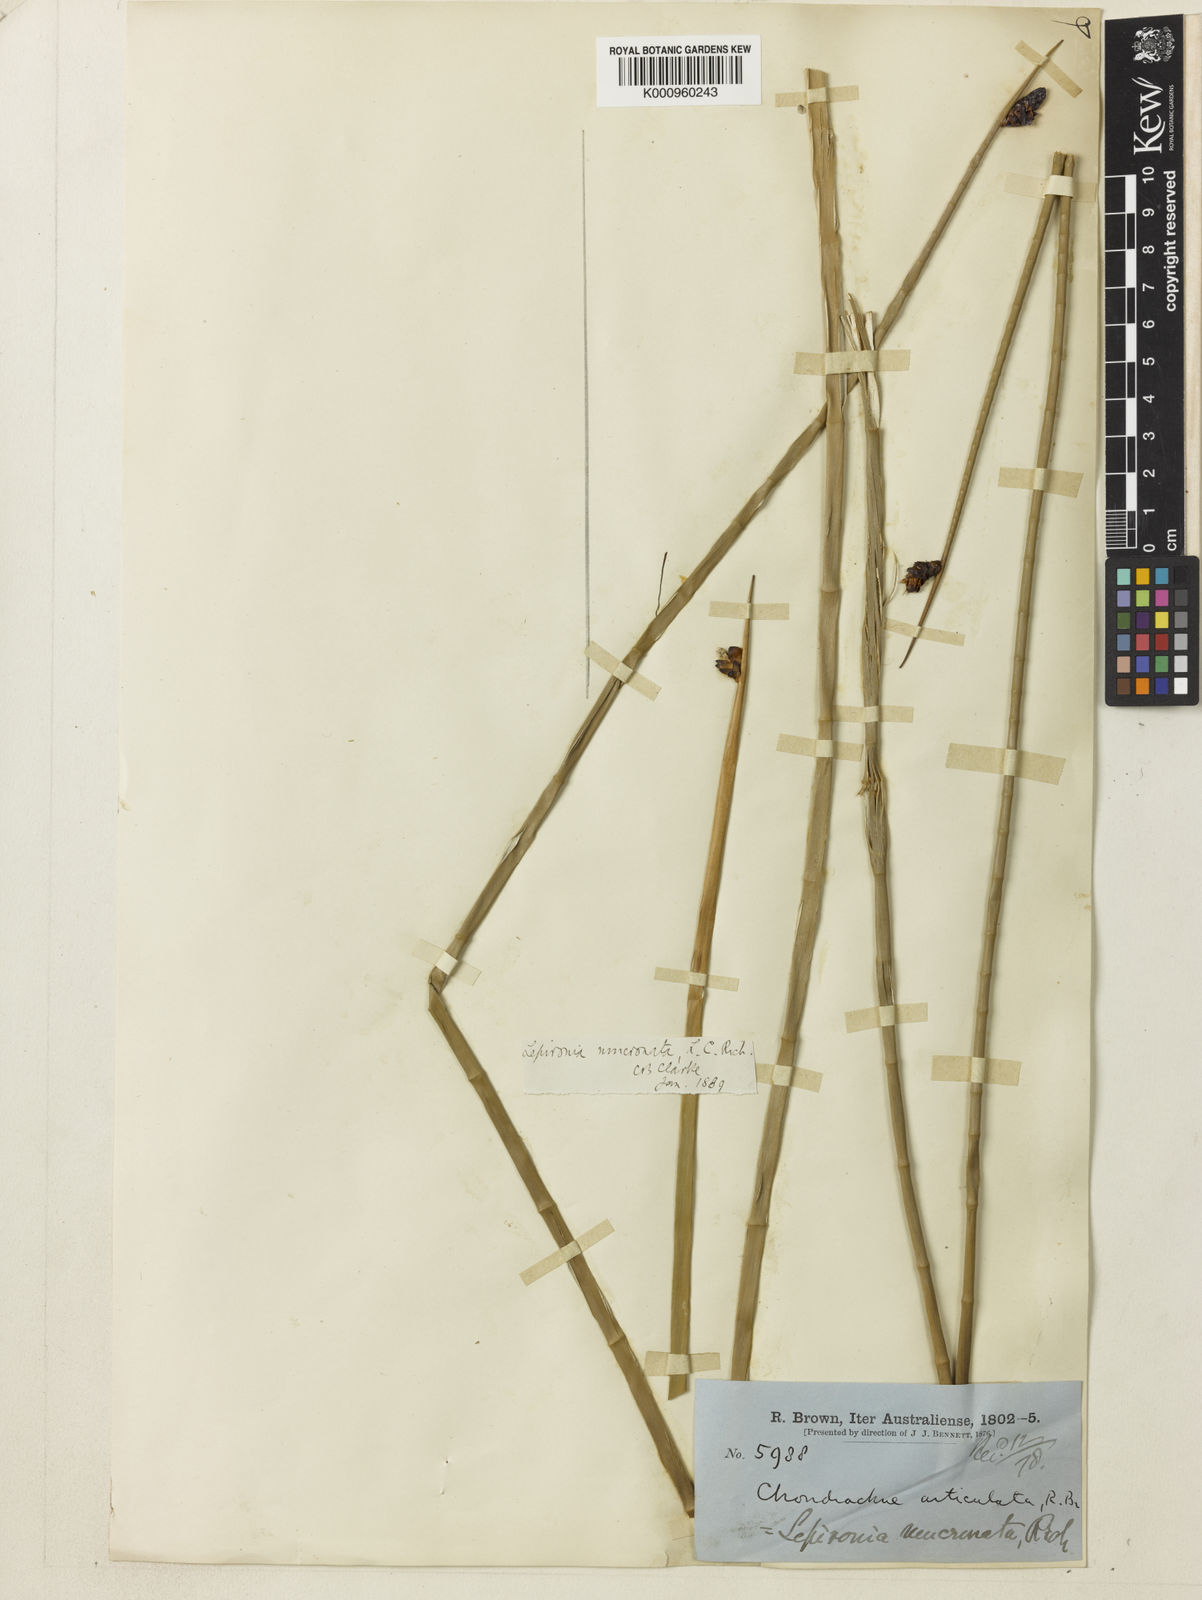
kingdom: Plantae
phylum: Tracheophyta
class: Liliopsida
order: Poales
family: Cyperaceae
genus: Lepironia
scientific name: Lepironia articulata
